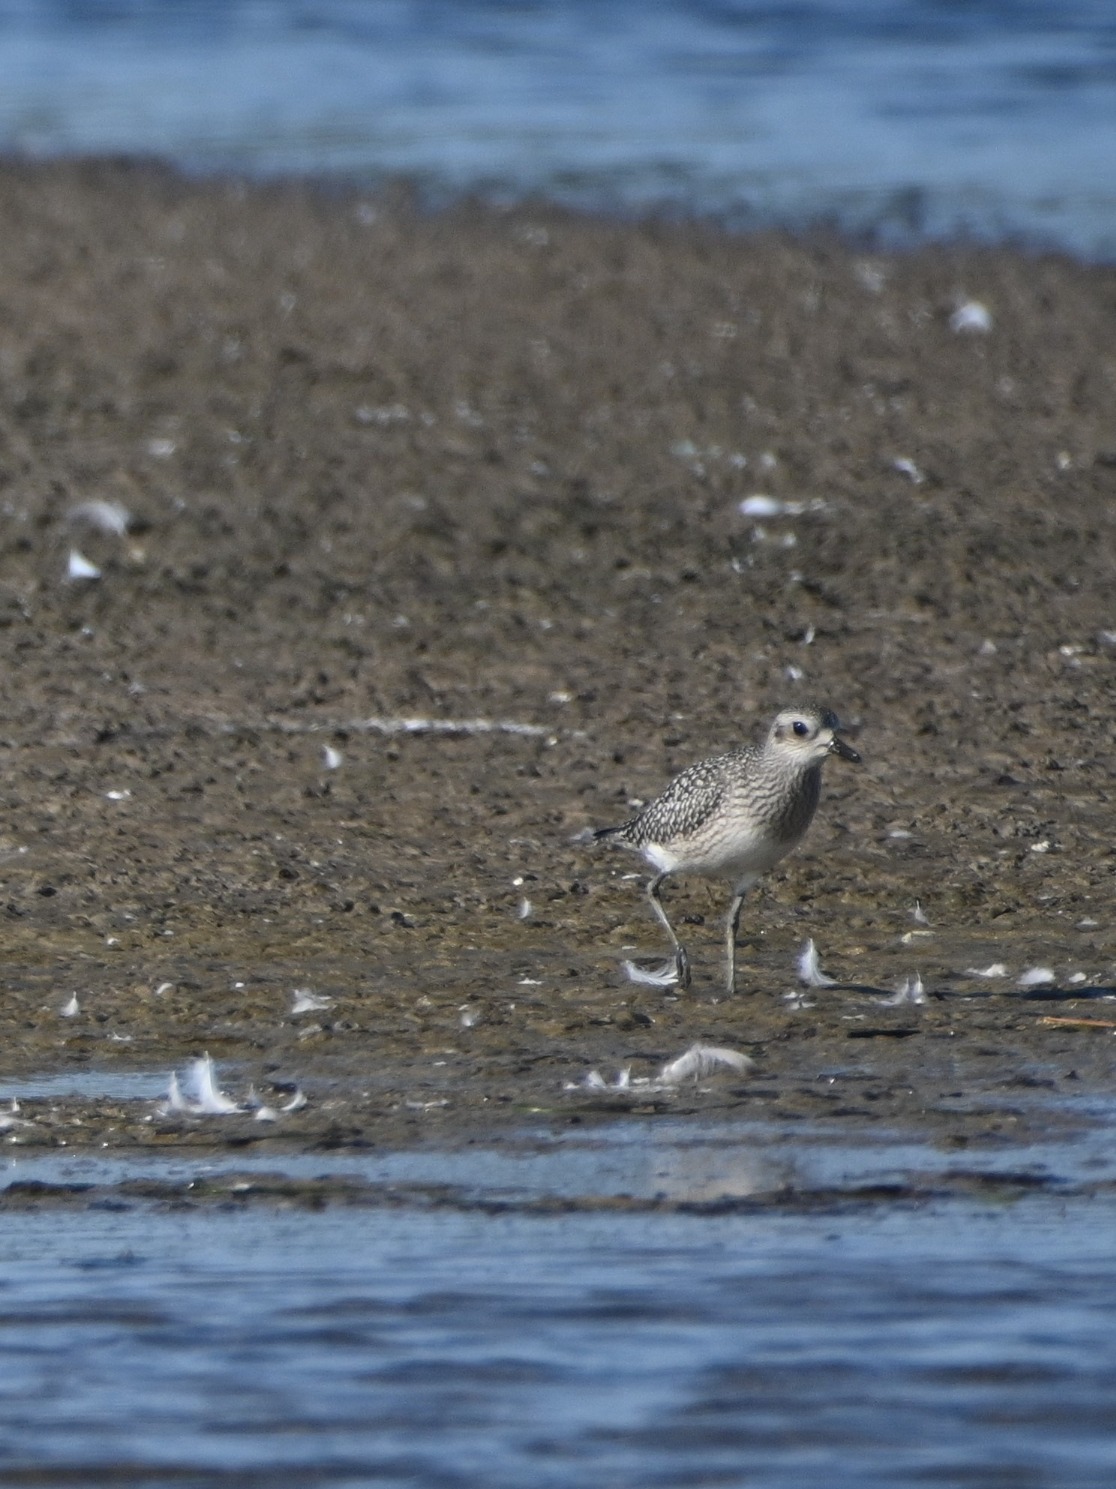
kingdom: Animalia
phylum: Chordata
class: Aves
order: Charadriiformes
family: Charadriidae
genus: Pluvialis
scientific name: Pluvialis squatarola
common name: Strandhjejle
